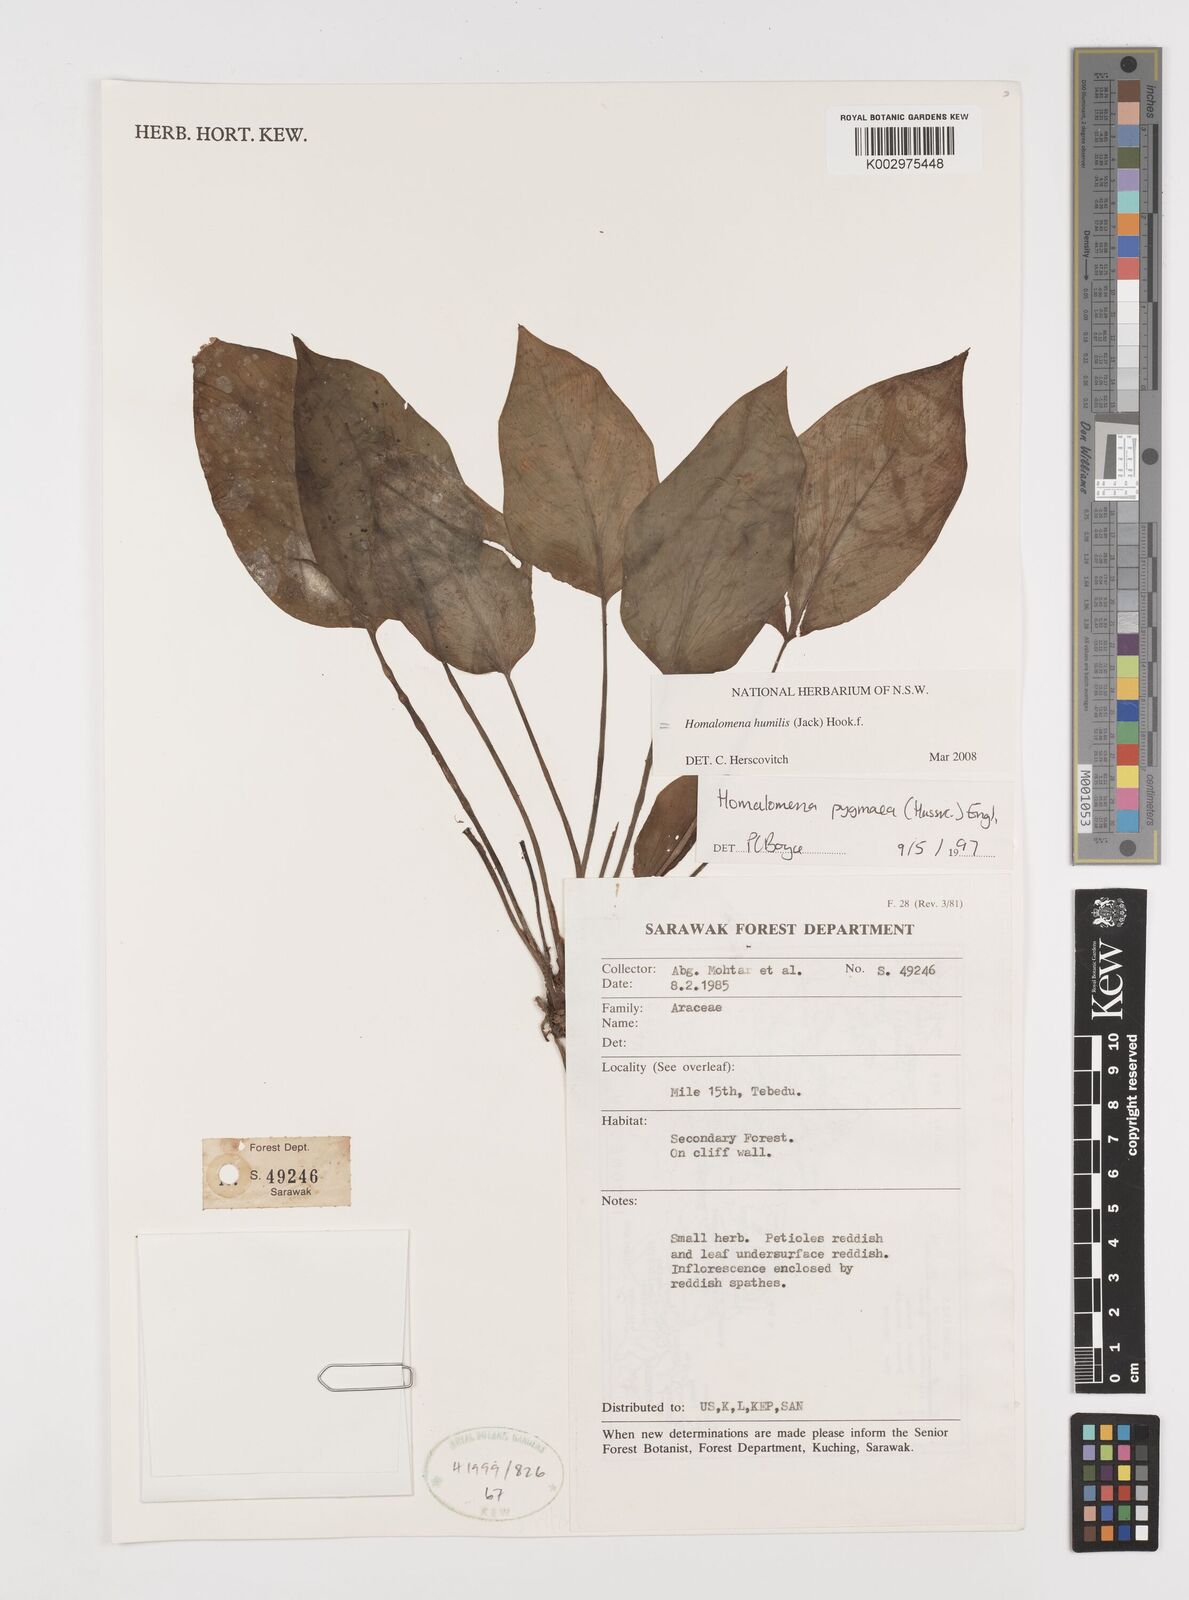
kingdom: Plantae
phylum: Tracheophyta
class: Liliopsida
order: Alismatales
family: Araceae
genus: Homalomena
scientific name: Homalomena humilis
